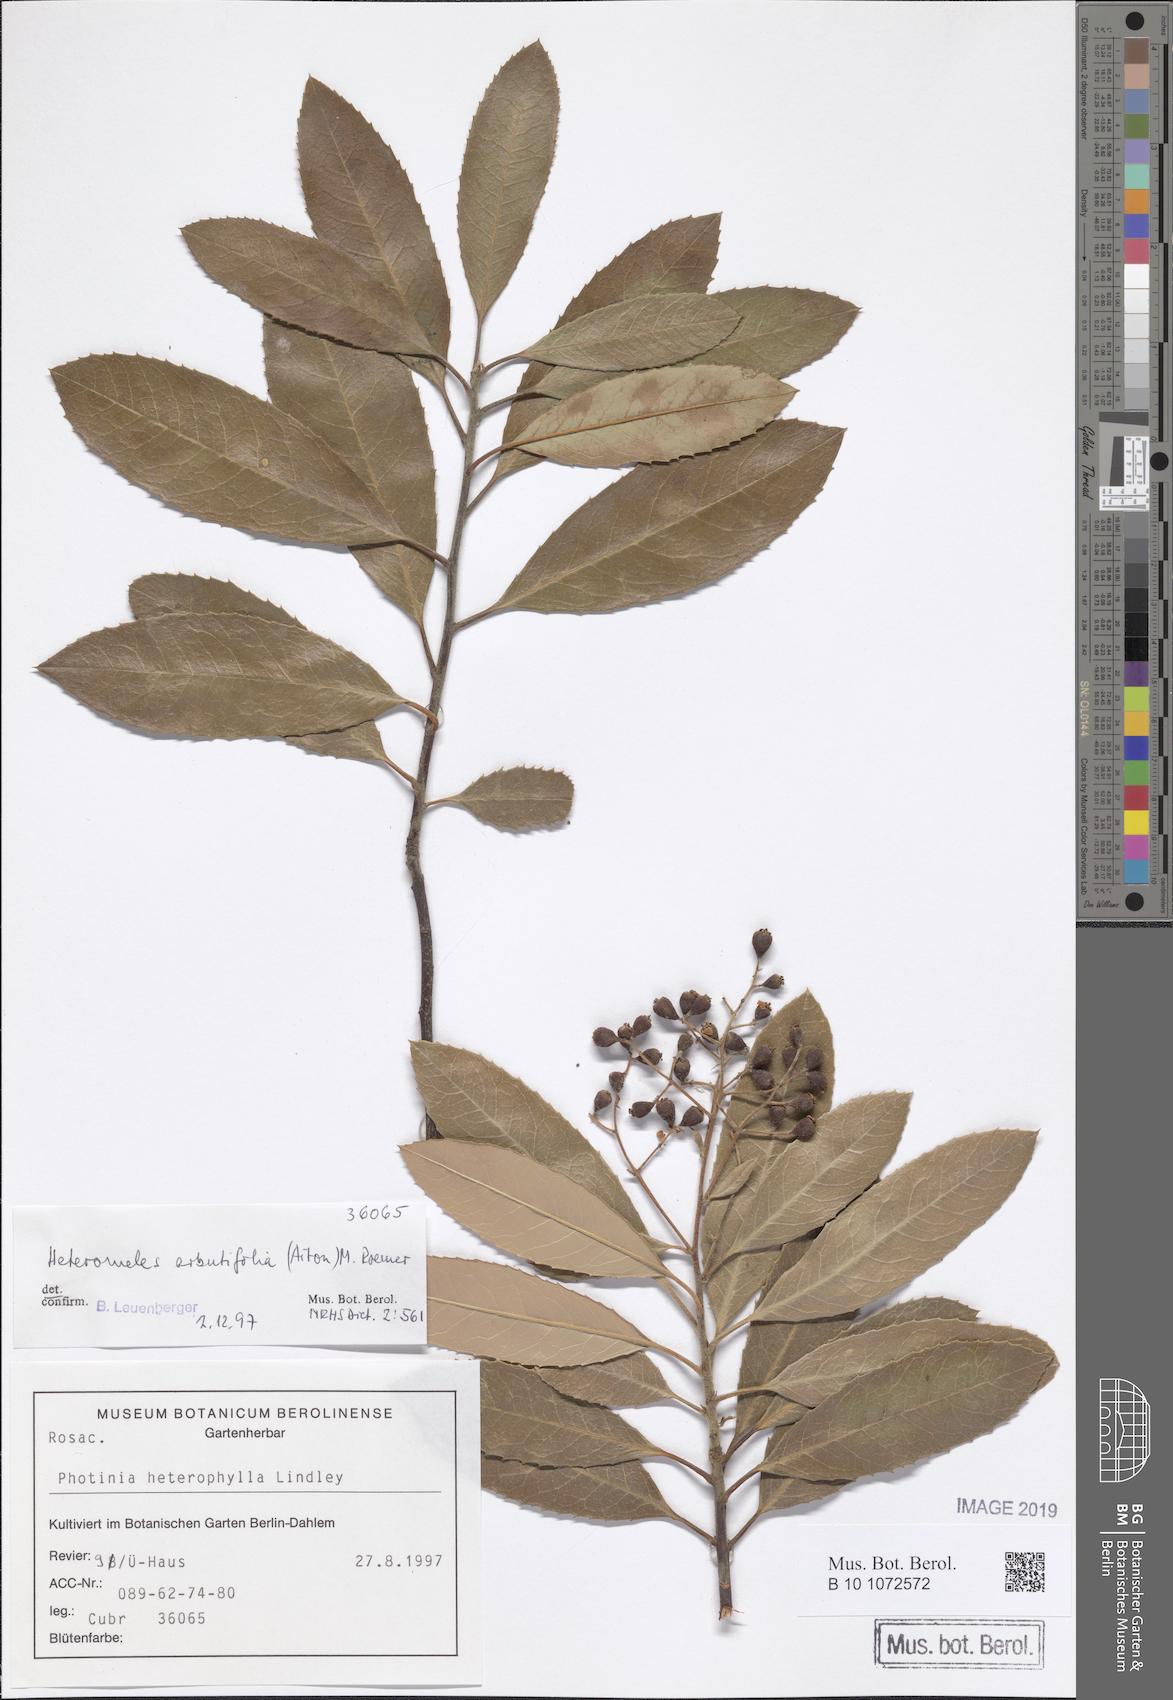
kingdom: Plantae
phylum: Tracheophyta
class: Magnoliopsida
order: Rosales
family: Rosaceae
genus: Heteromeles
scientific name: Heteromeles arbutifolia
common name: California-holly
